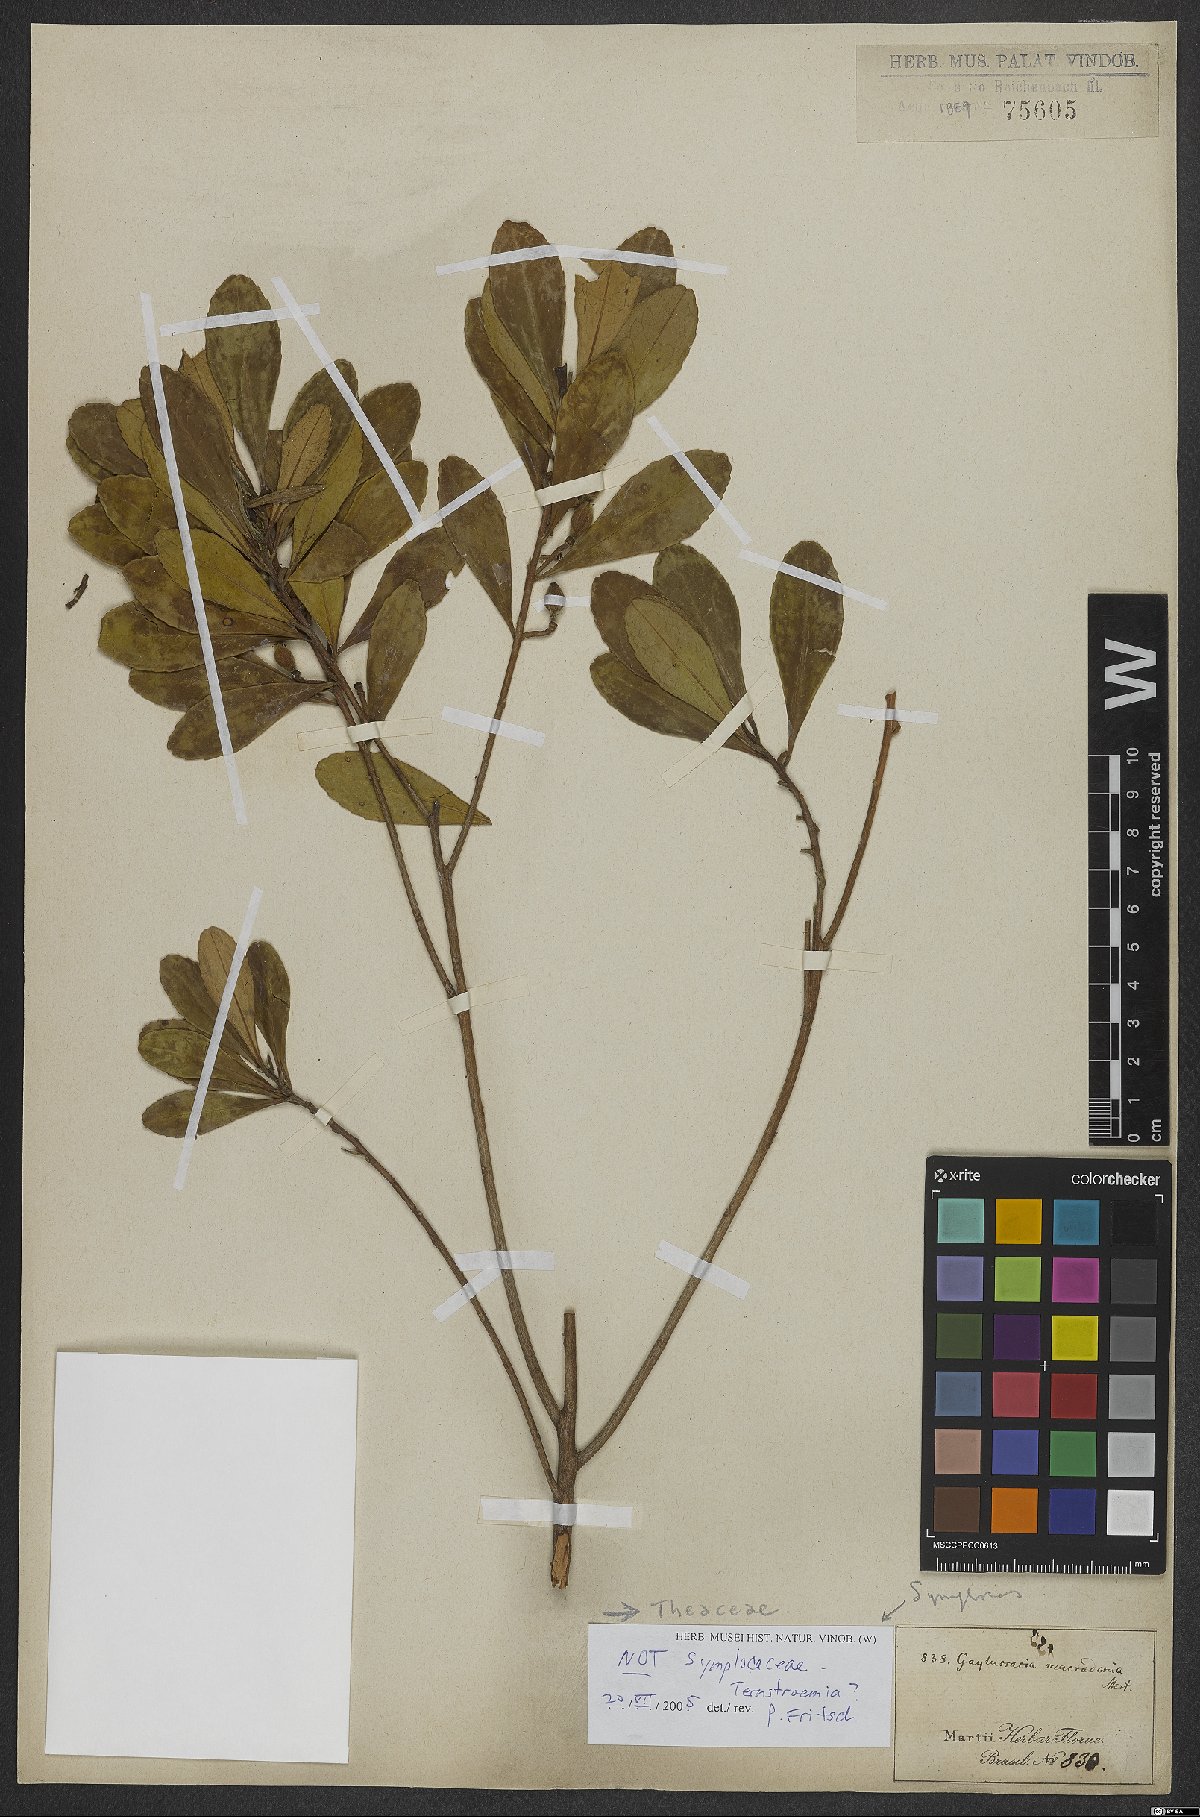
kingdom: Plantae
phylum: Tracheophyta
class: Magnoliopsida
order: Ericales
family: Theaceae
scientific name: Theaceae
